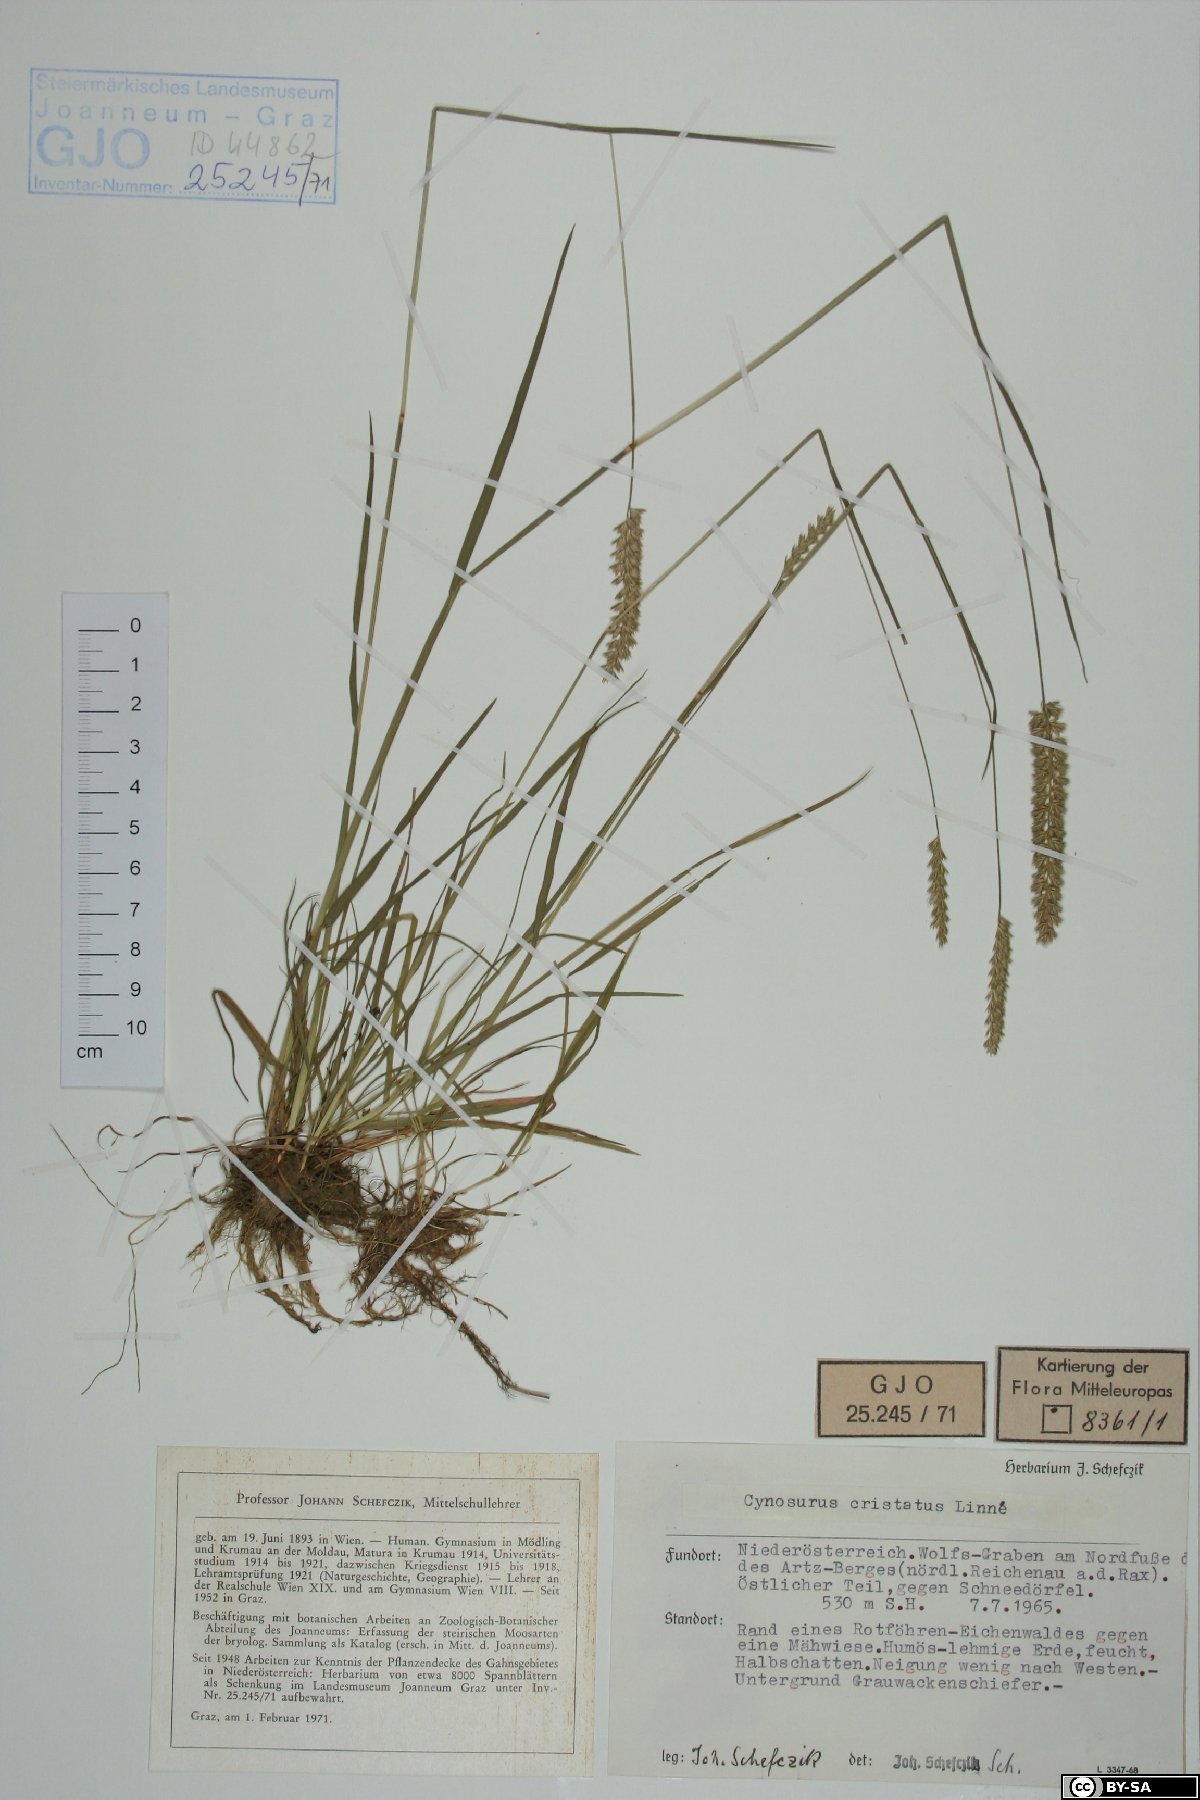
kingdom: Plantae
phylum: Tracheophyta
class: Liliopsida
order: Poales
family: Poaceae
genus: Cynosurus
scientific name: Cynosurus cristatus
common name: Crested dog's-tail
